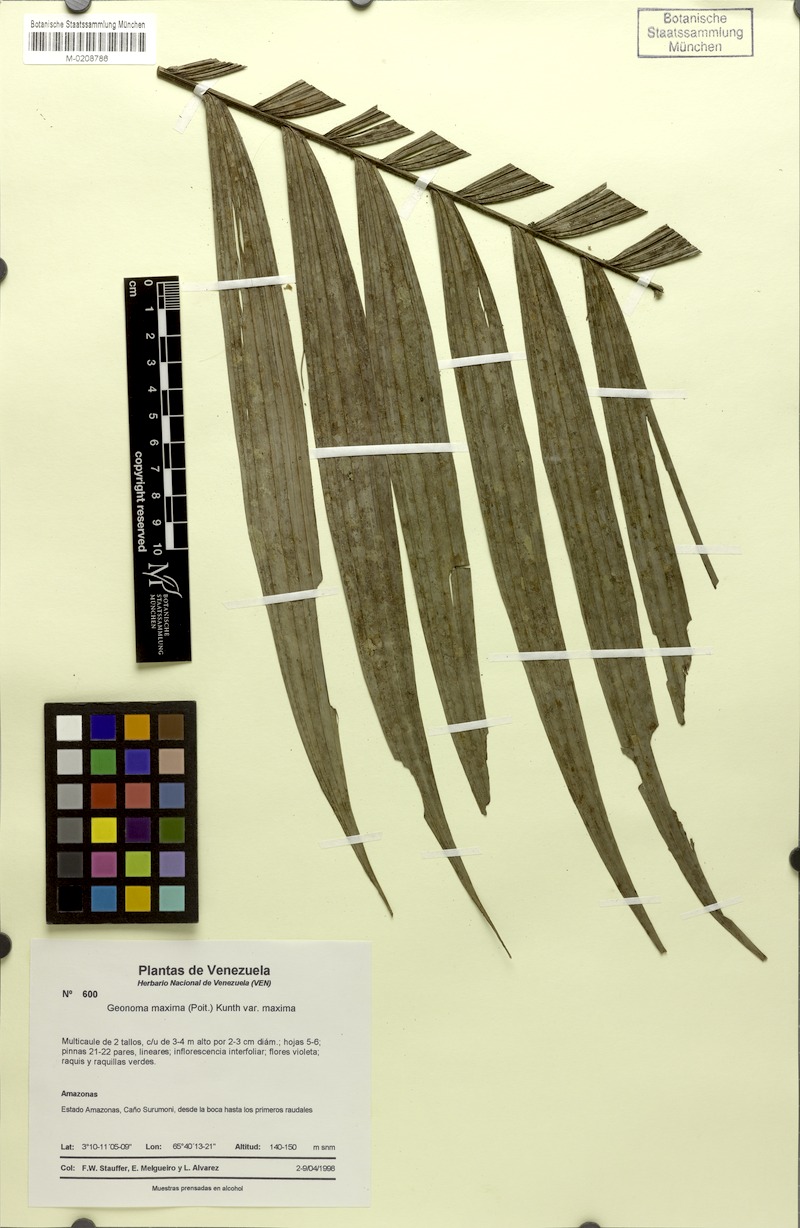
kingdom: Plantae
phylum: Tracheophyta
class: Liliopsida
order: Arecales
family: Arecaceae
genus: Geonoma
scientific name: Geonoma maxima
